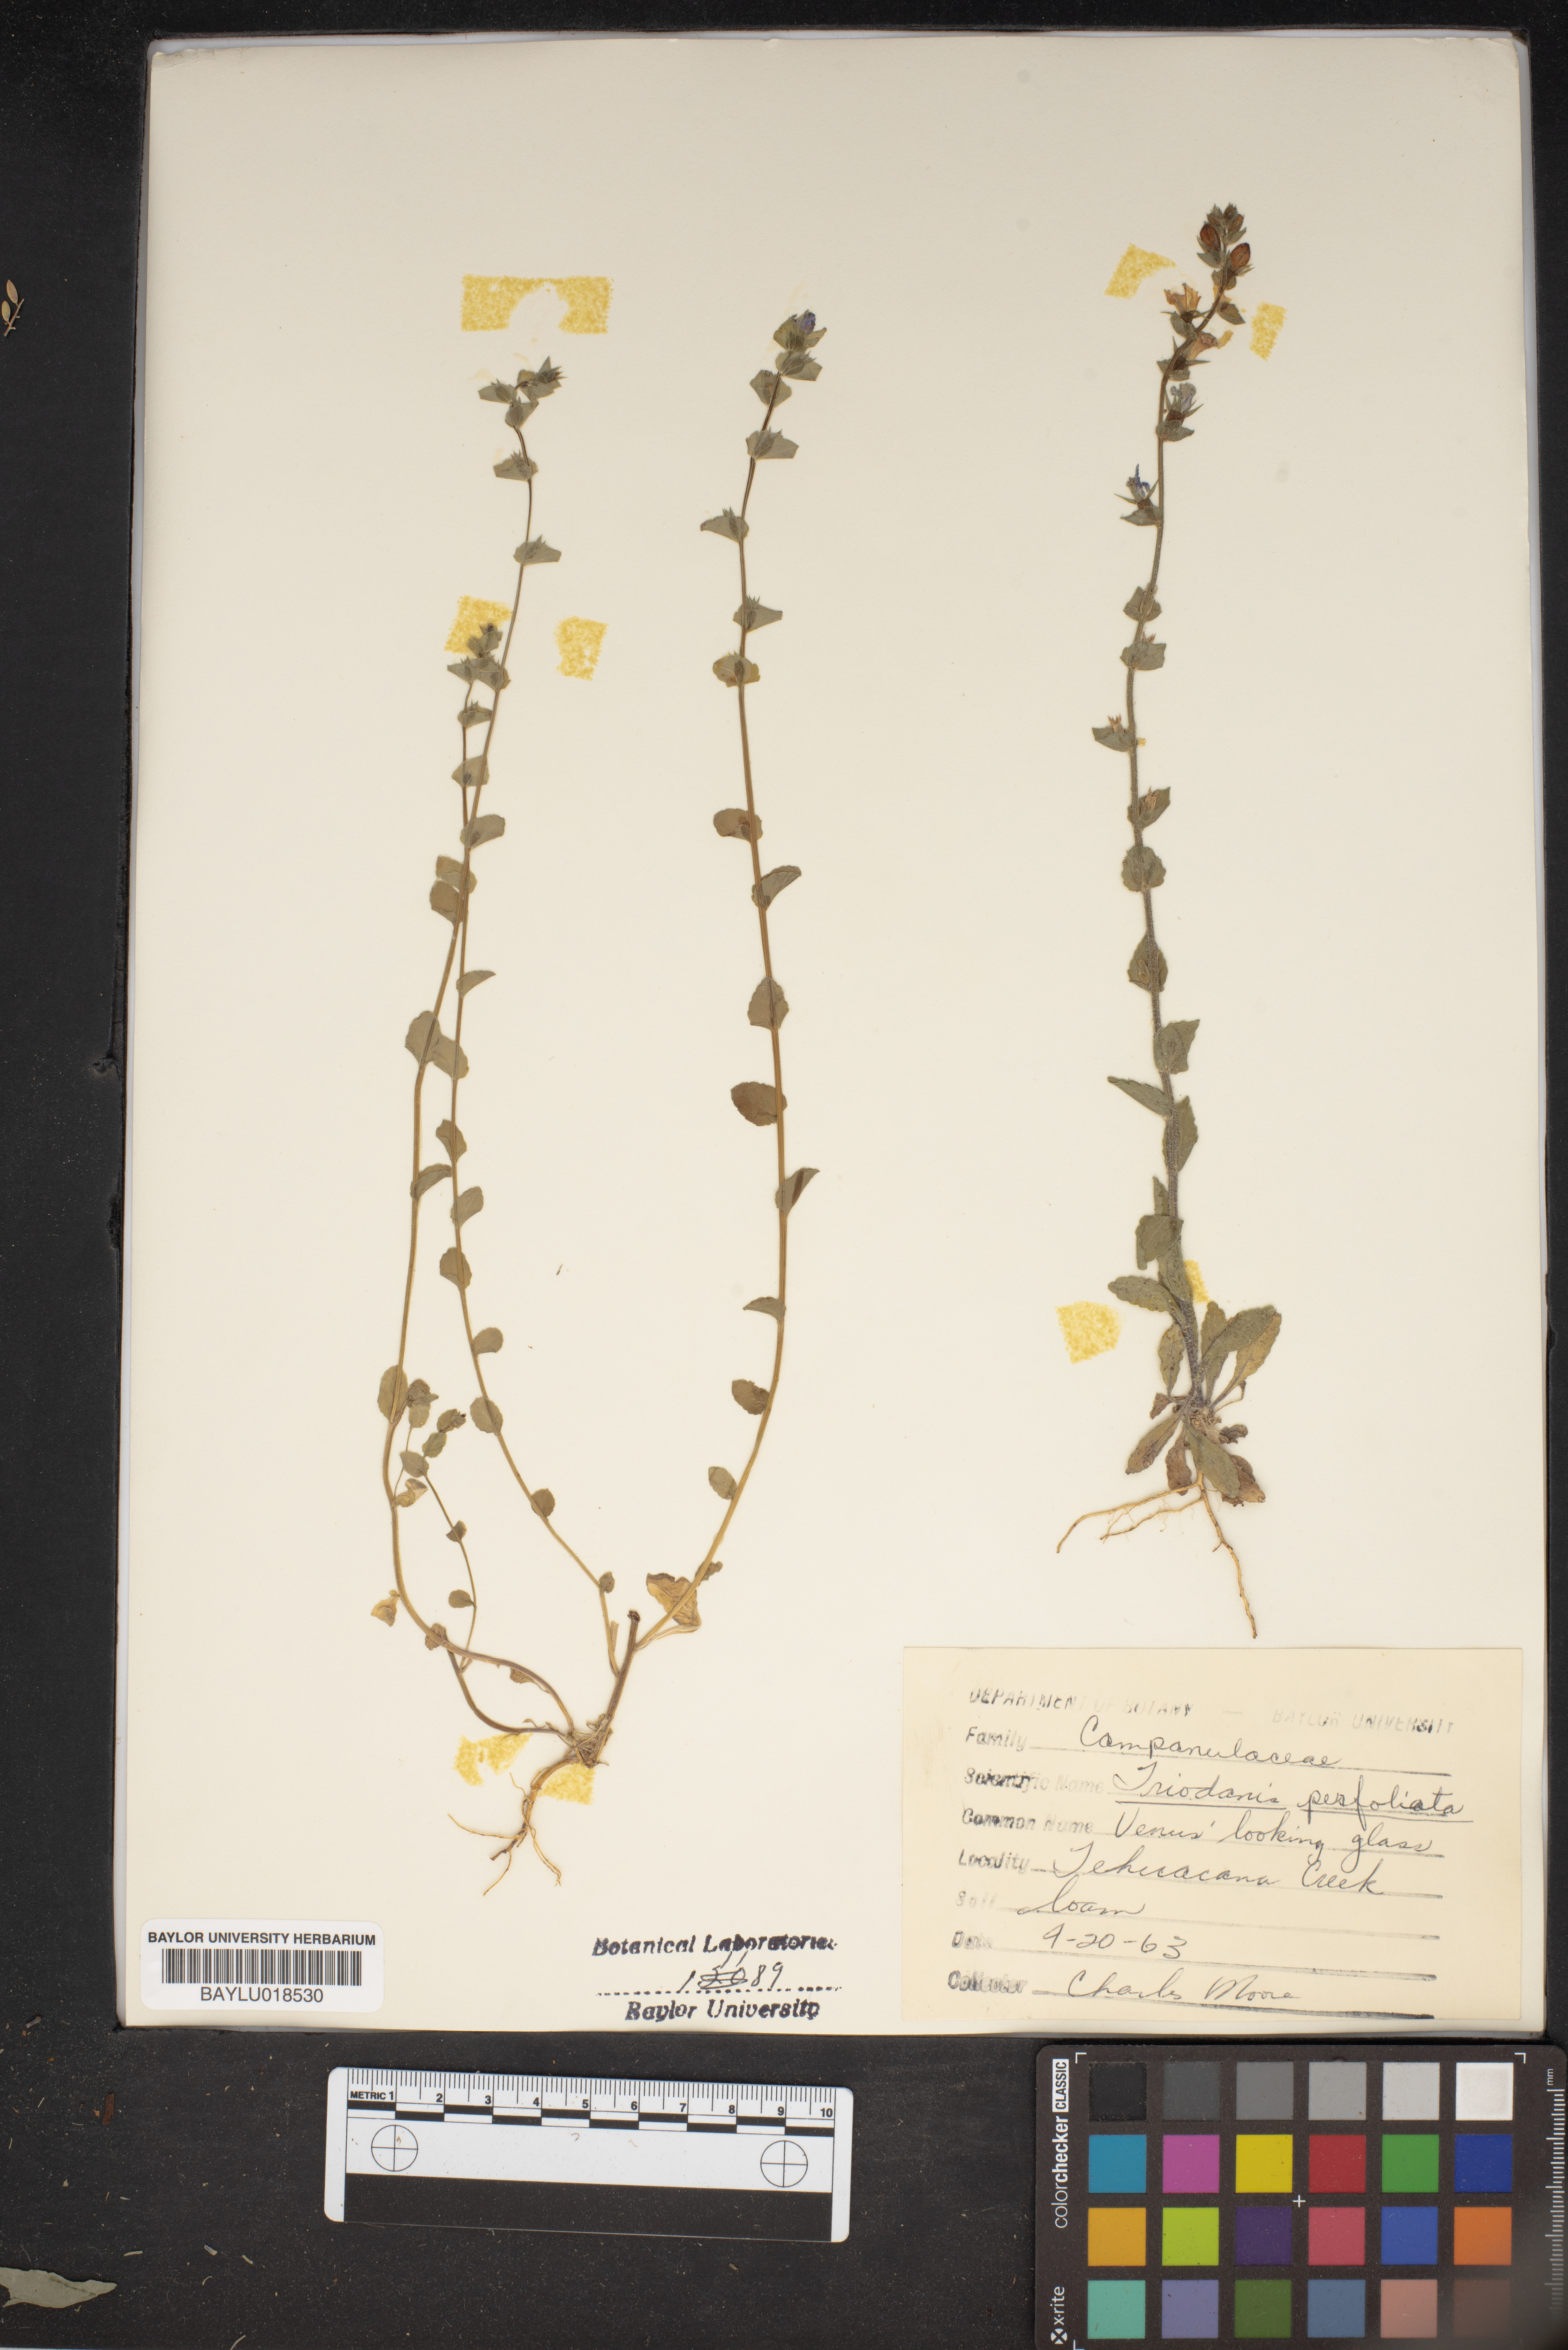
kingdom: Plantae
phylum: Tracheophyta
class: Magnoliopsida
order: Asterales
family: Campanulaceae
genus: Triodanis
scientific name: Triodanis perfoliata
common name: Clasping venus' looking-glass
